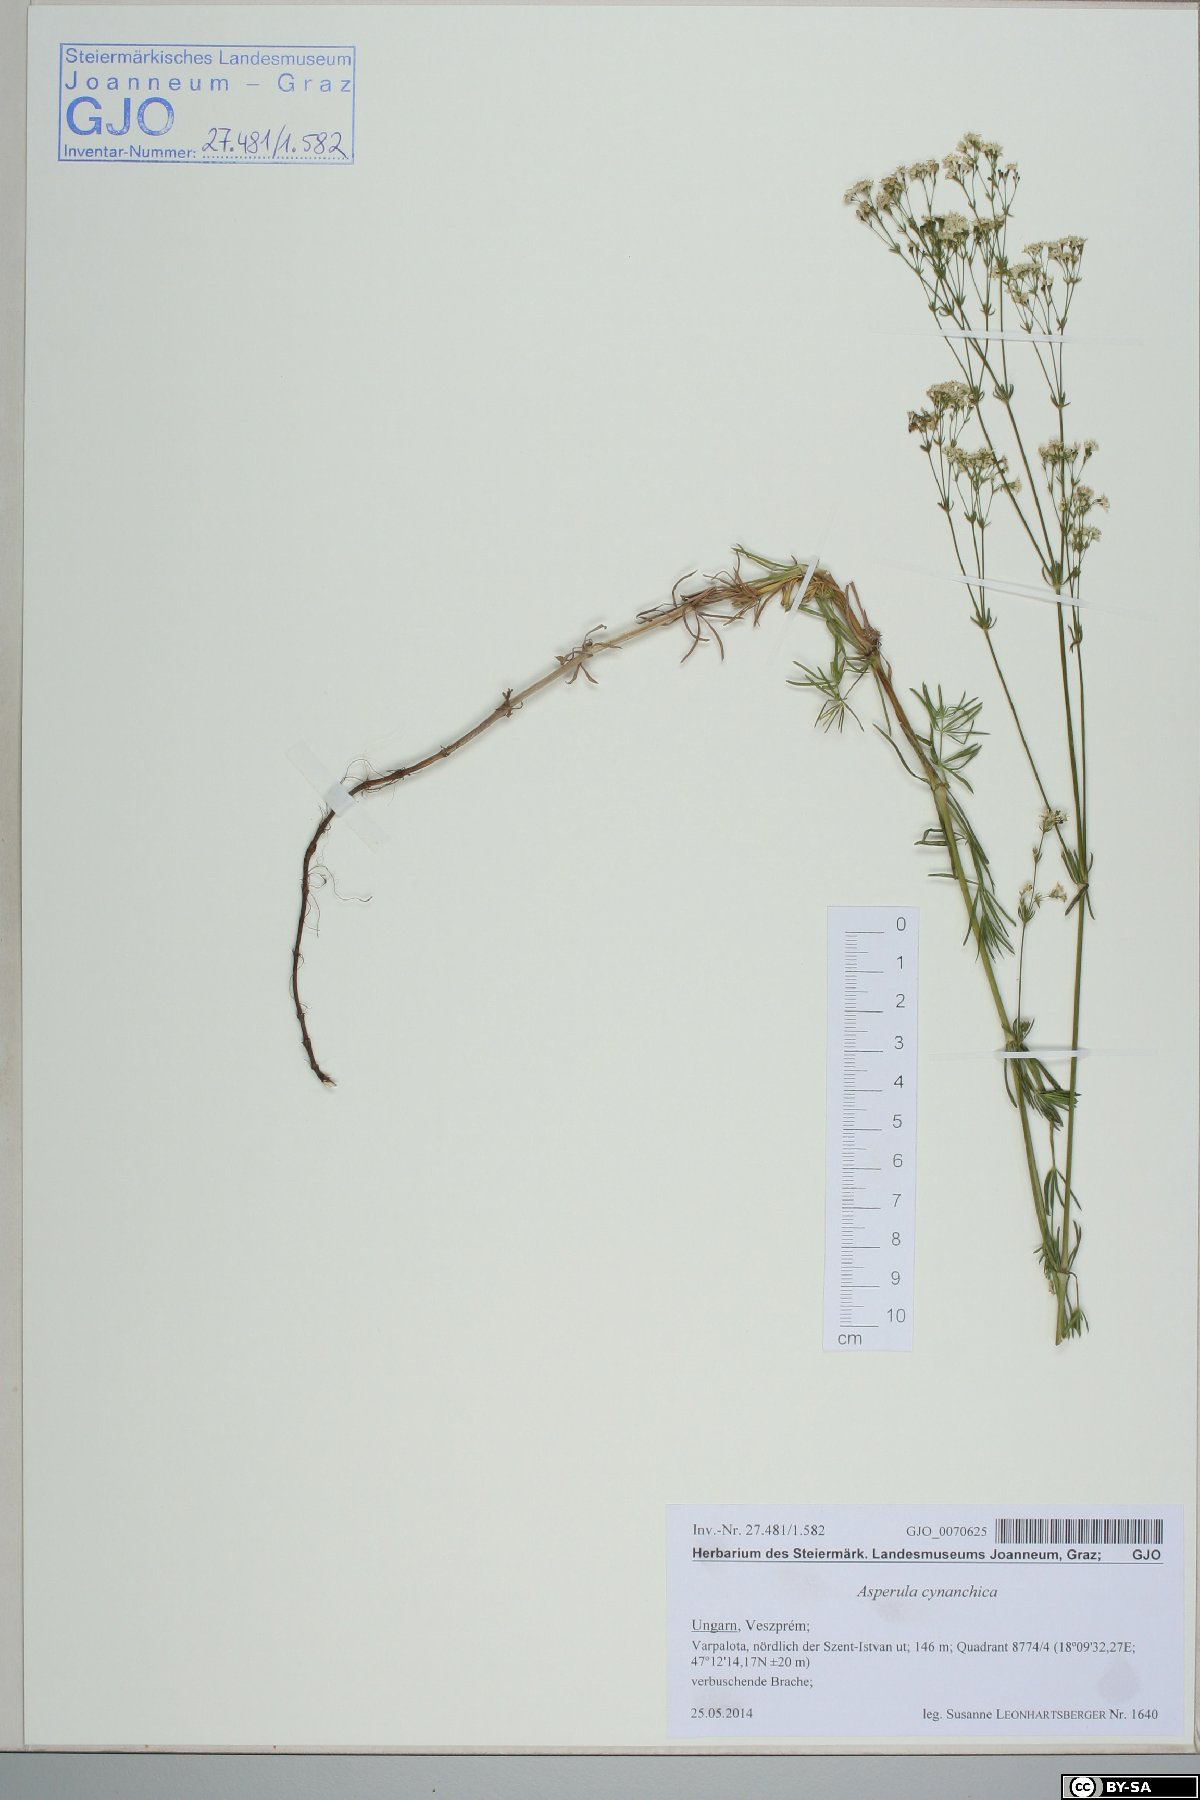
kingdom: Plantae
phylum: Tracheophyta
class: Magnoliopsida
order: Gentianales
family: Rubiaceae
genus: Cynanchica
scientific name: Cynanchica pyrenaica
